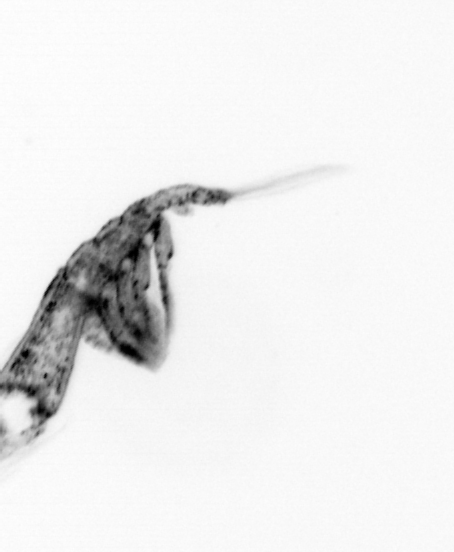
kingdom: Animalia
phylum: Arthropoda
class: Copepoda
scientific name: Copepoda
